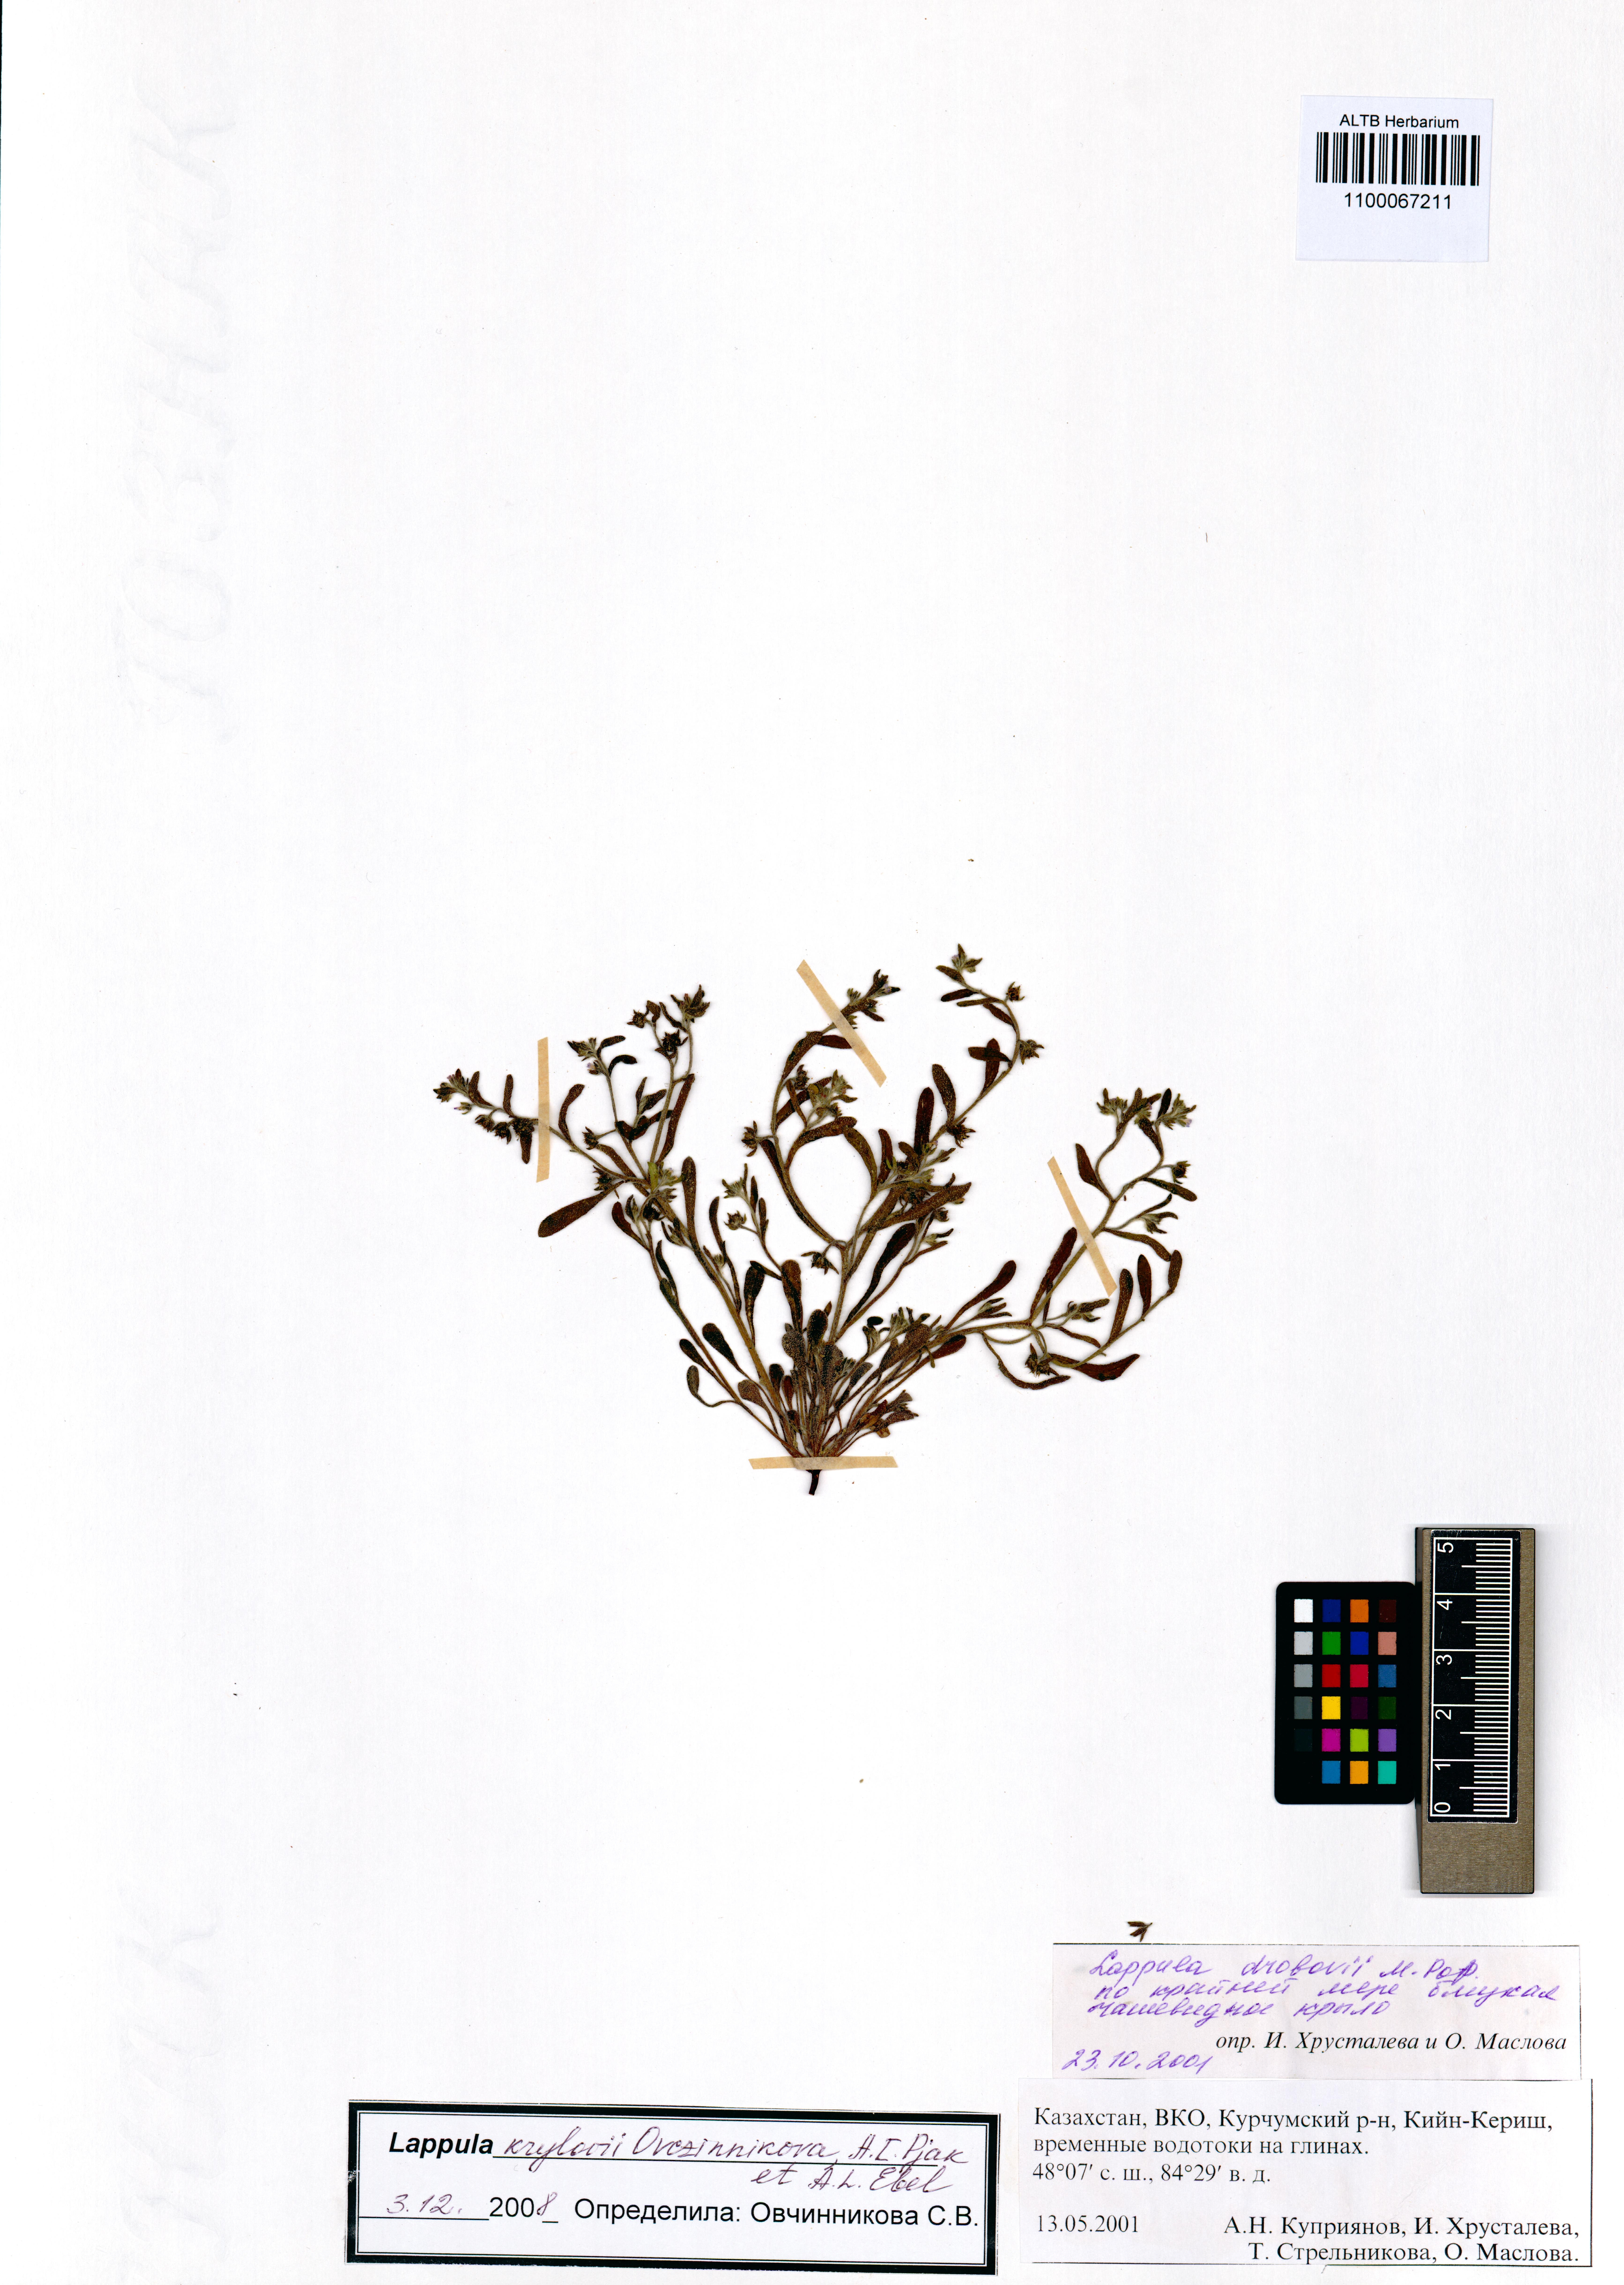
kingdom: Plantae
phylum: Tracheophyta
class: Magnoliopsida
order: Boraginales
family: Boraginaceae
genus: Lappula
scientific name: Lappula krylovii
